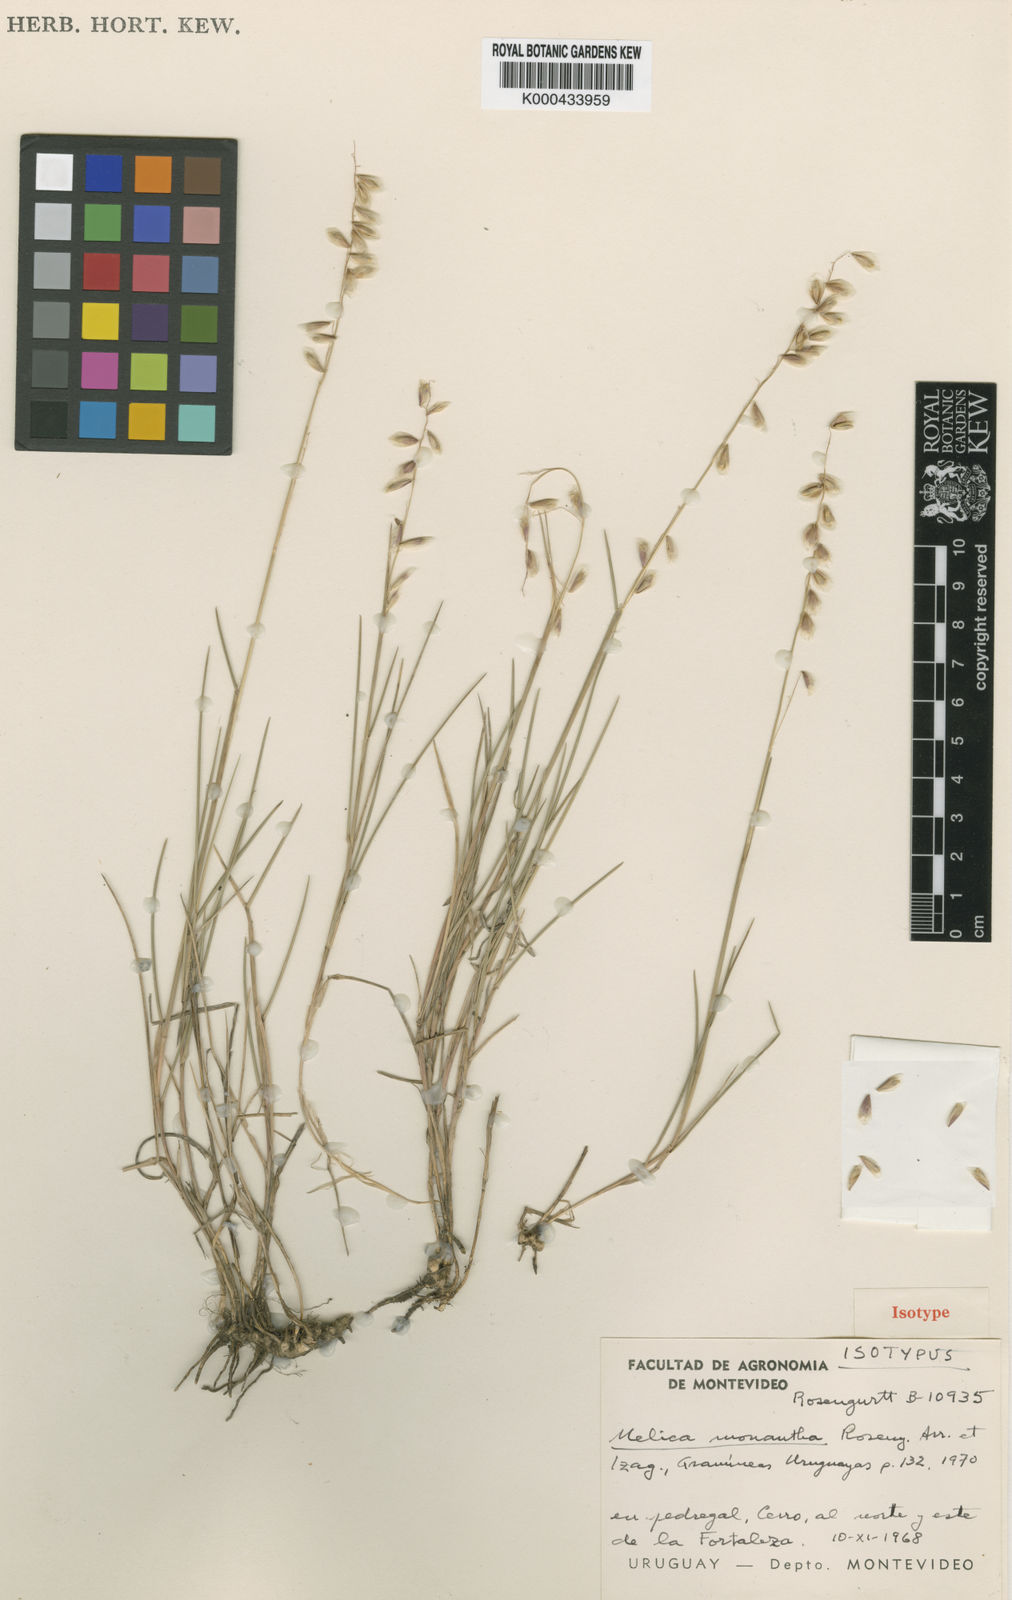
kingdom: Plantae
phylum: Tracheophyta
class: Liliopsida
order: Poales
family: Poaceae
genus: Melica
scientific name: Melica eremophila
